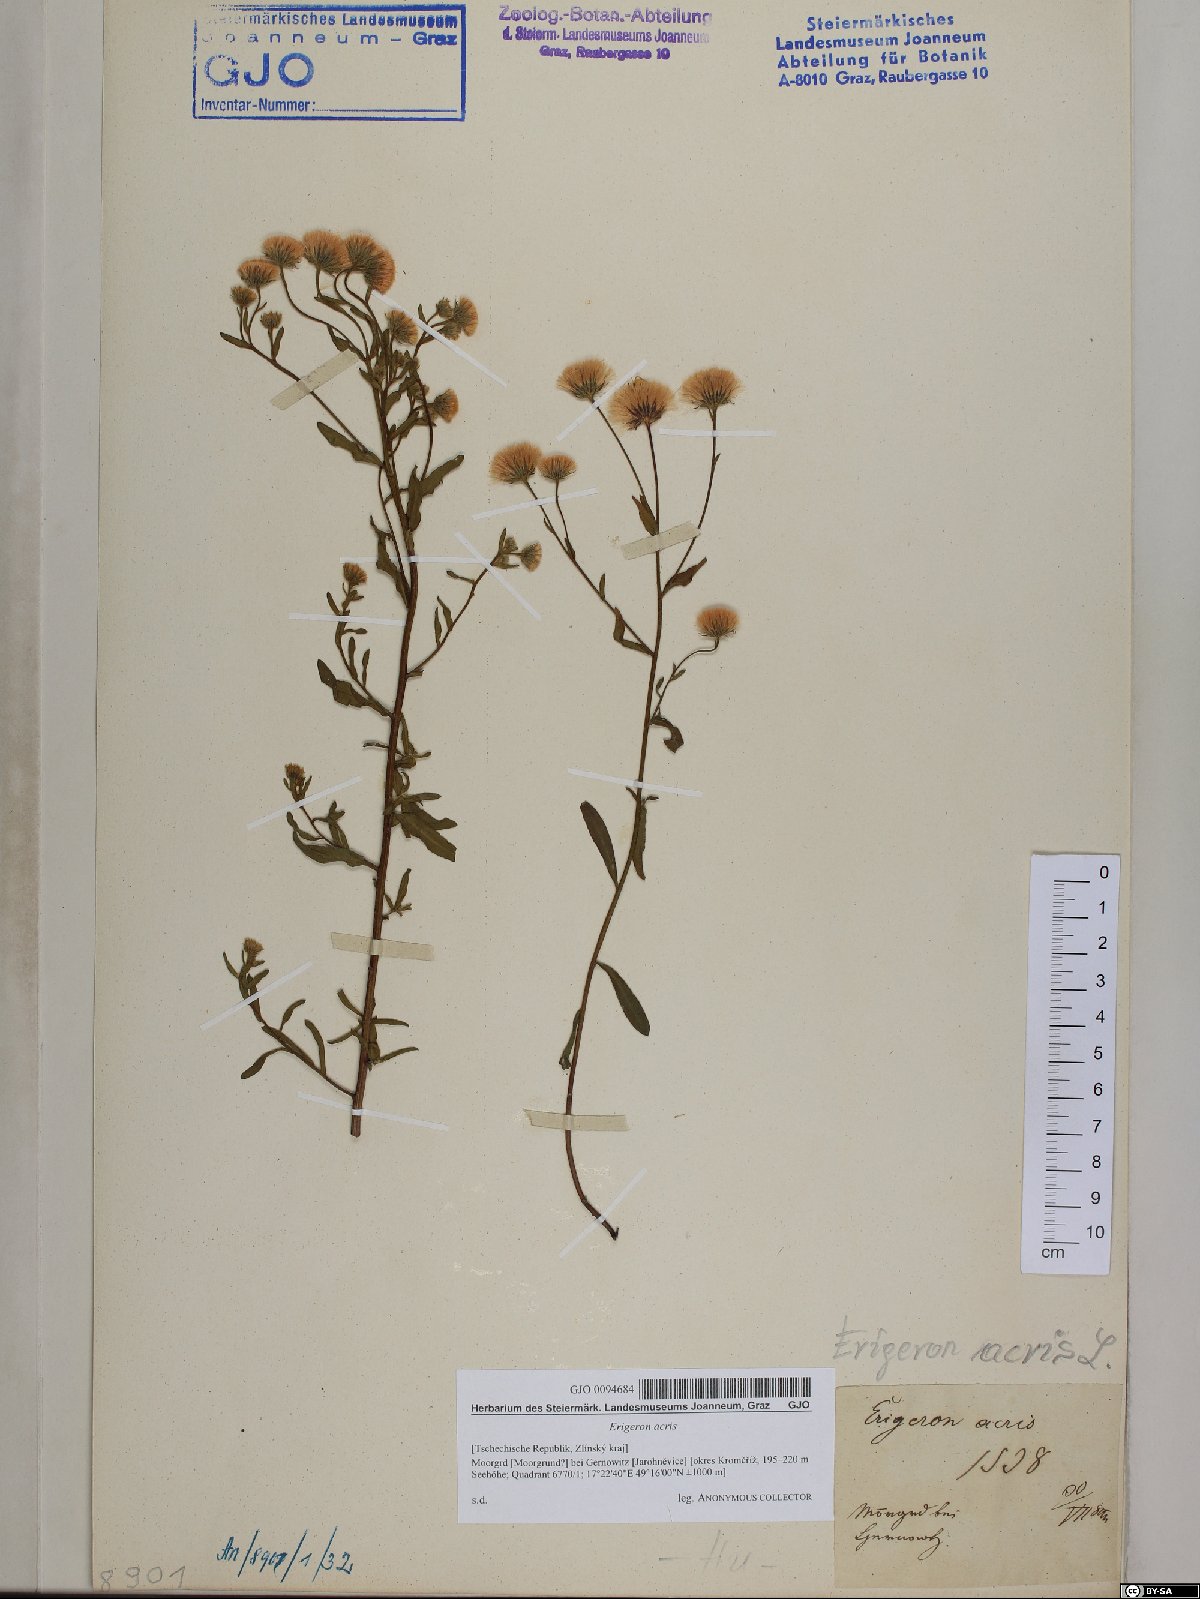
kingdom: Plantae
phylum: Tracheophyta
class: Magnoliopsida
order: Asterales
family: Asteraceae
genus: Erigeron
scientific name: Erigeron acris
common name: Blue fleabane
